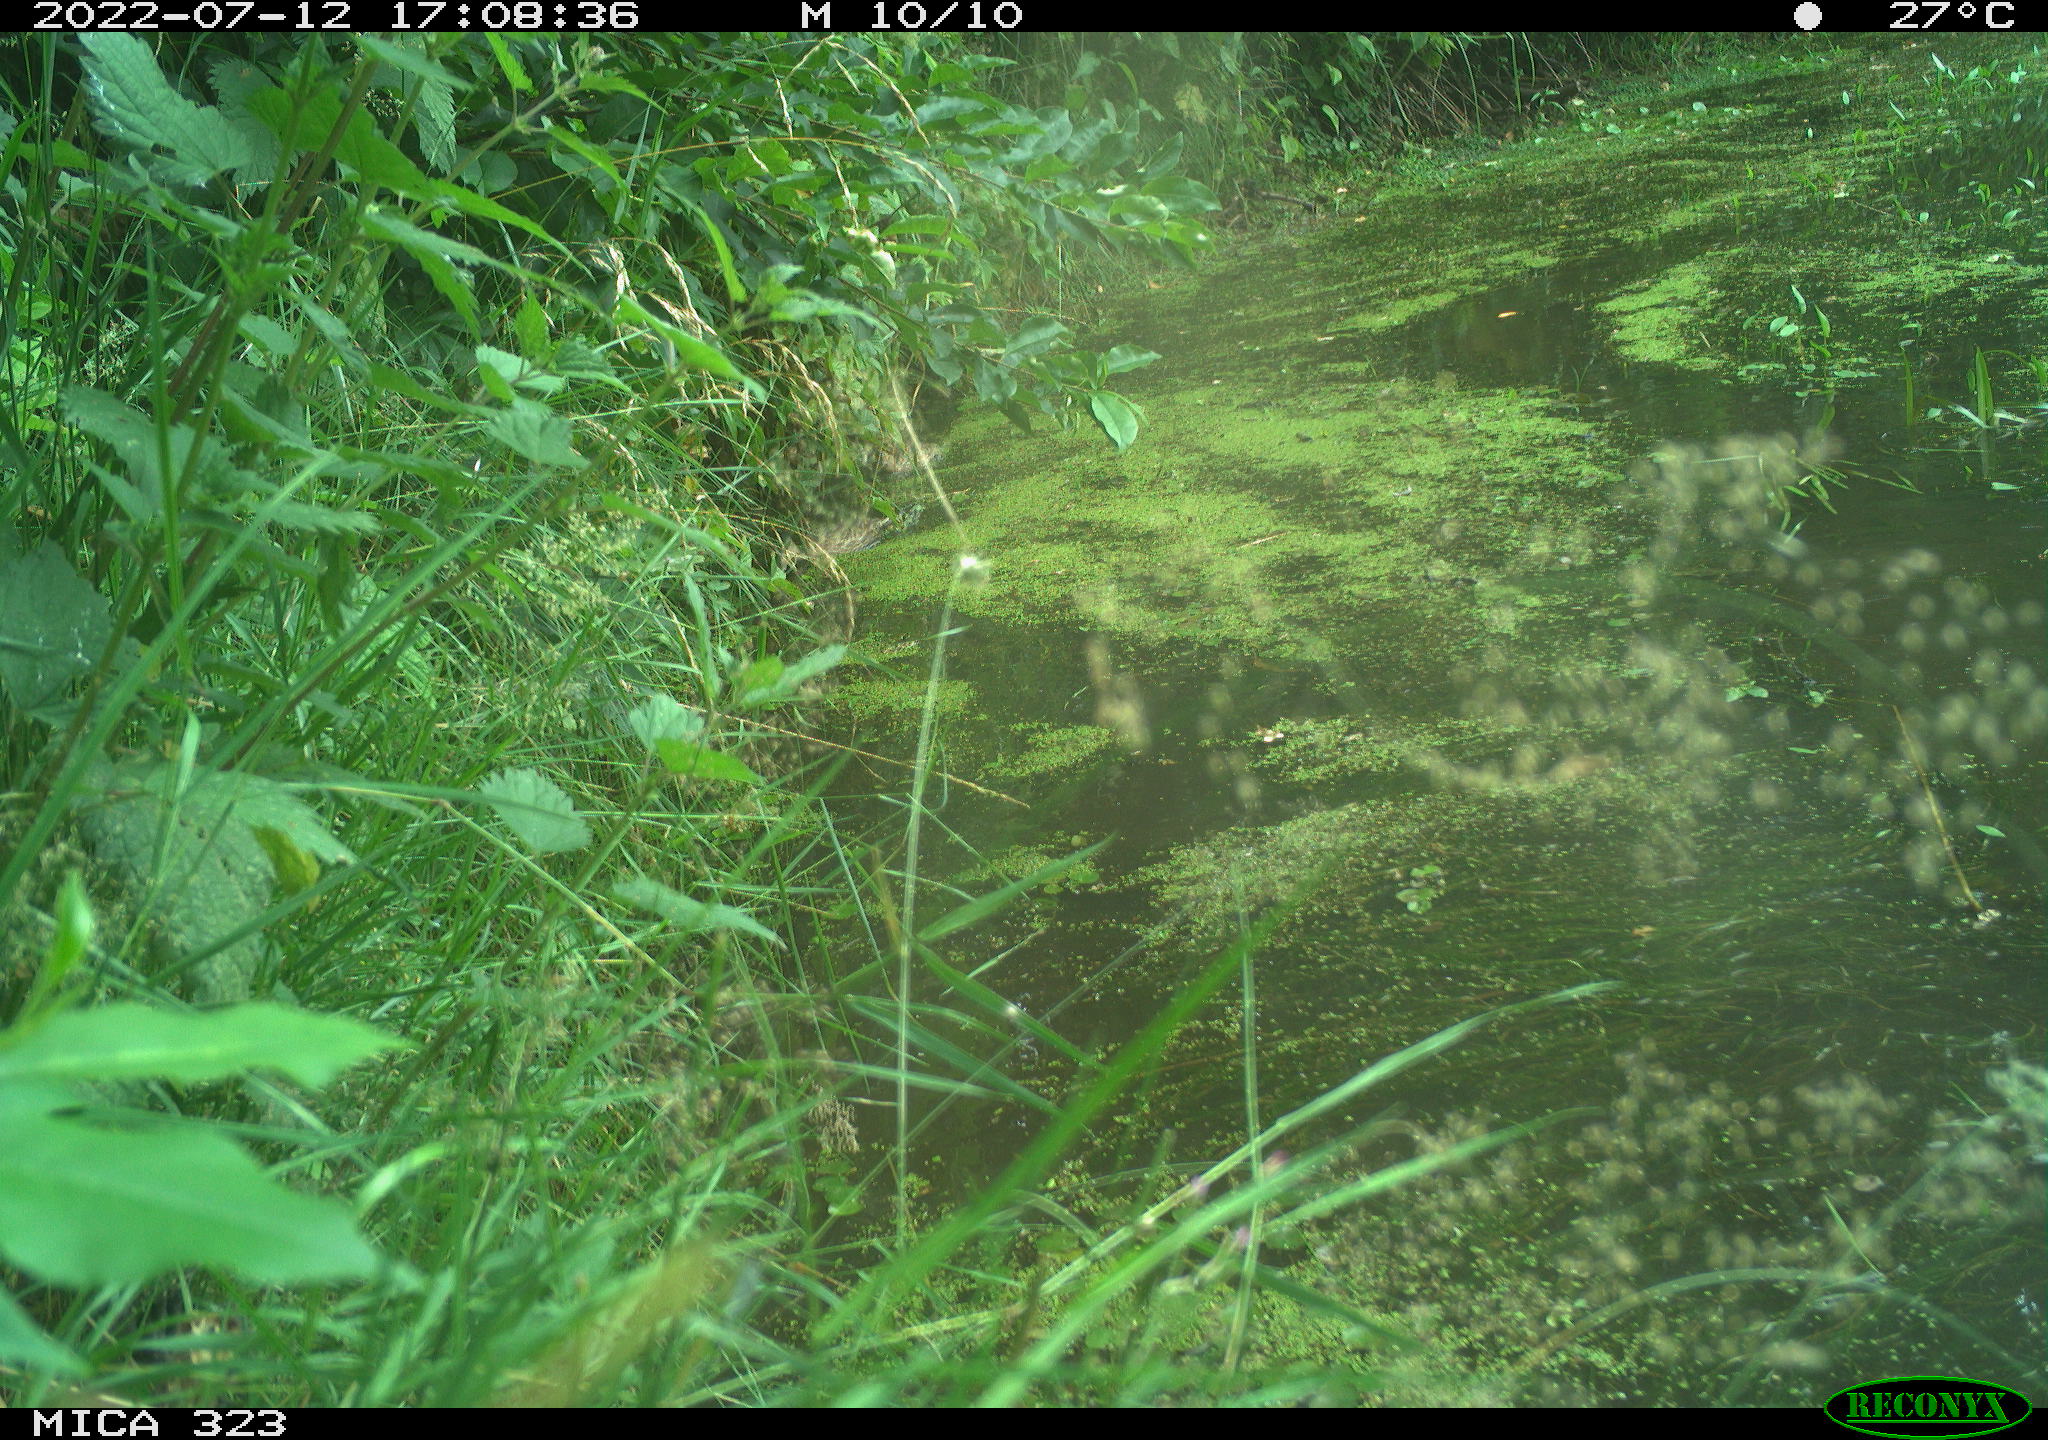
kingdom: Animalia
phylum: Chordata
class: Aves
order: Anseriformes
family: Anatidae
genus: Anas
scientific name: Anas platyrhynchos
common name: Mallard
